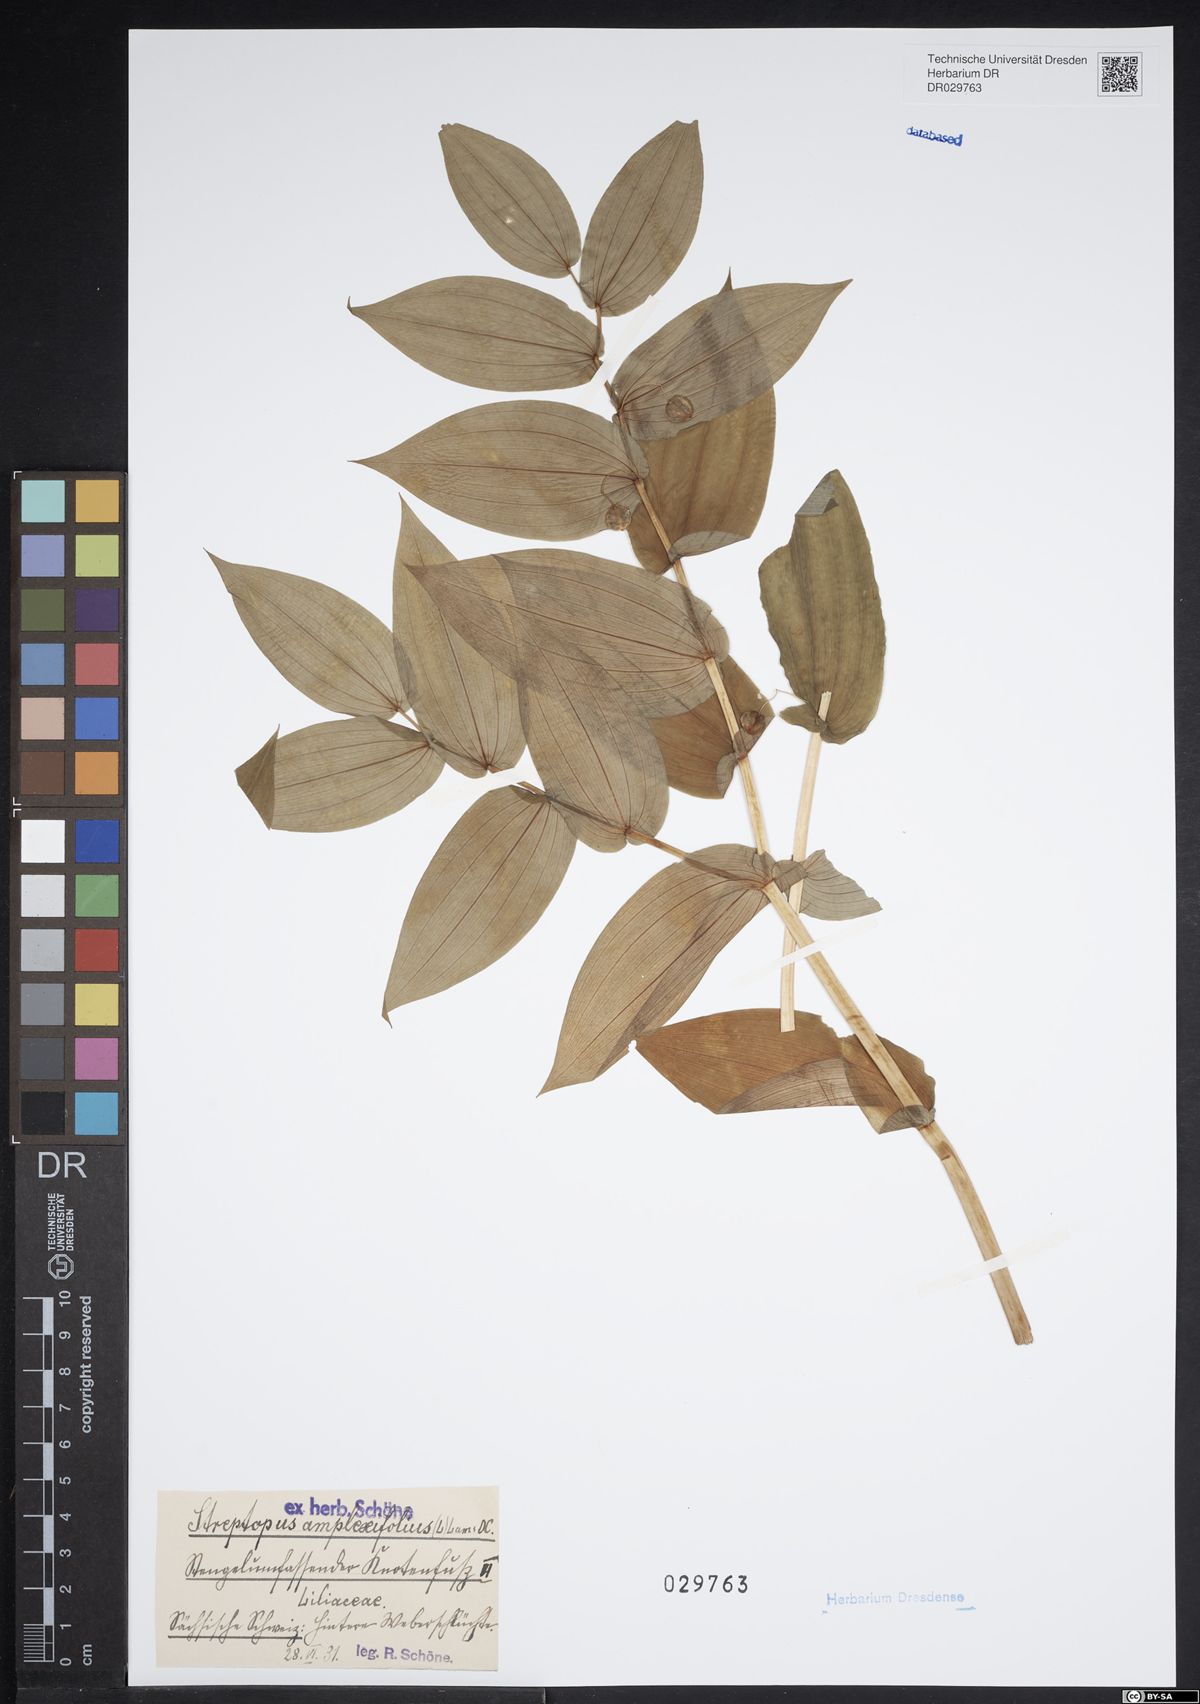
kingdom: Plantae
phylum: Tracheophyta
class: Liliopsida
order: Liliales
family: Liliaceae
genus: Streptopus
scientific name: Streptopus amplexifolius
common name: Clasp twisted stalk
